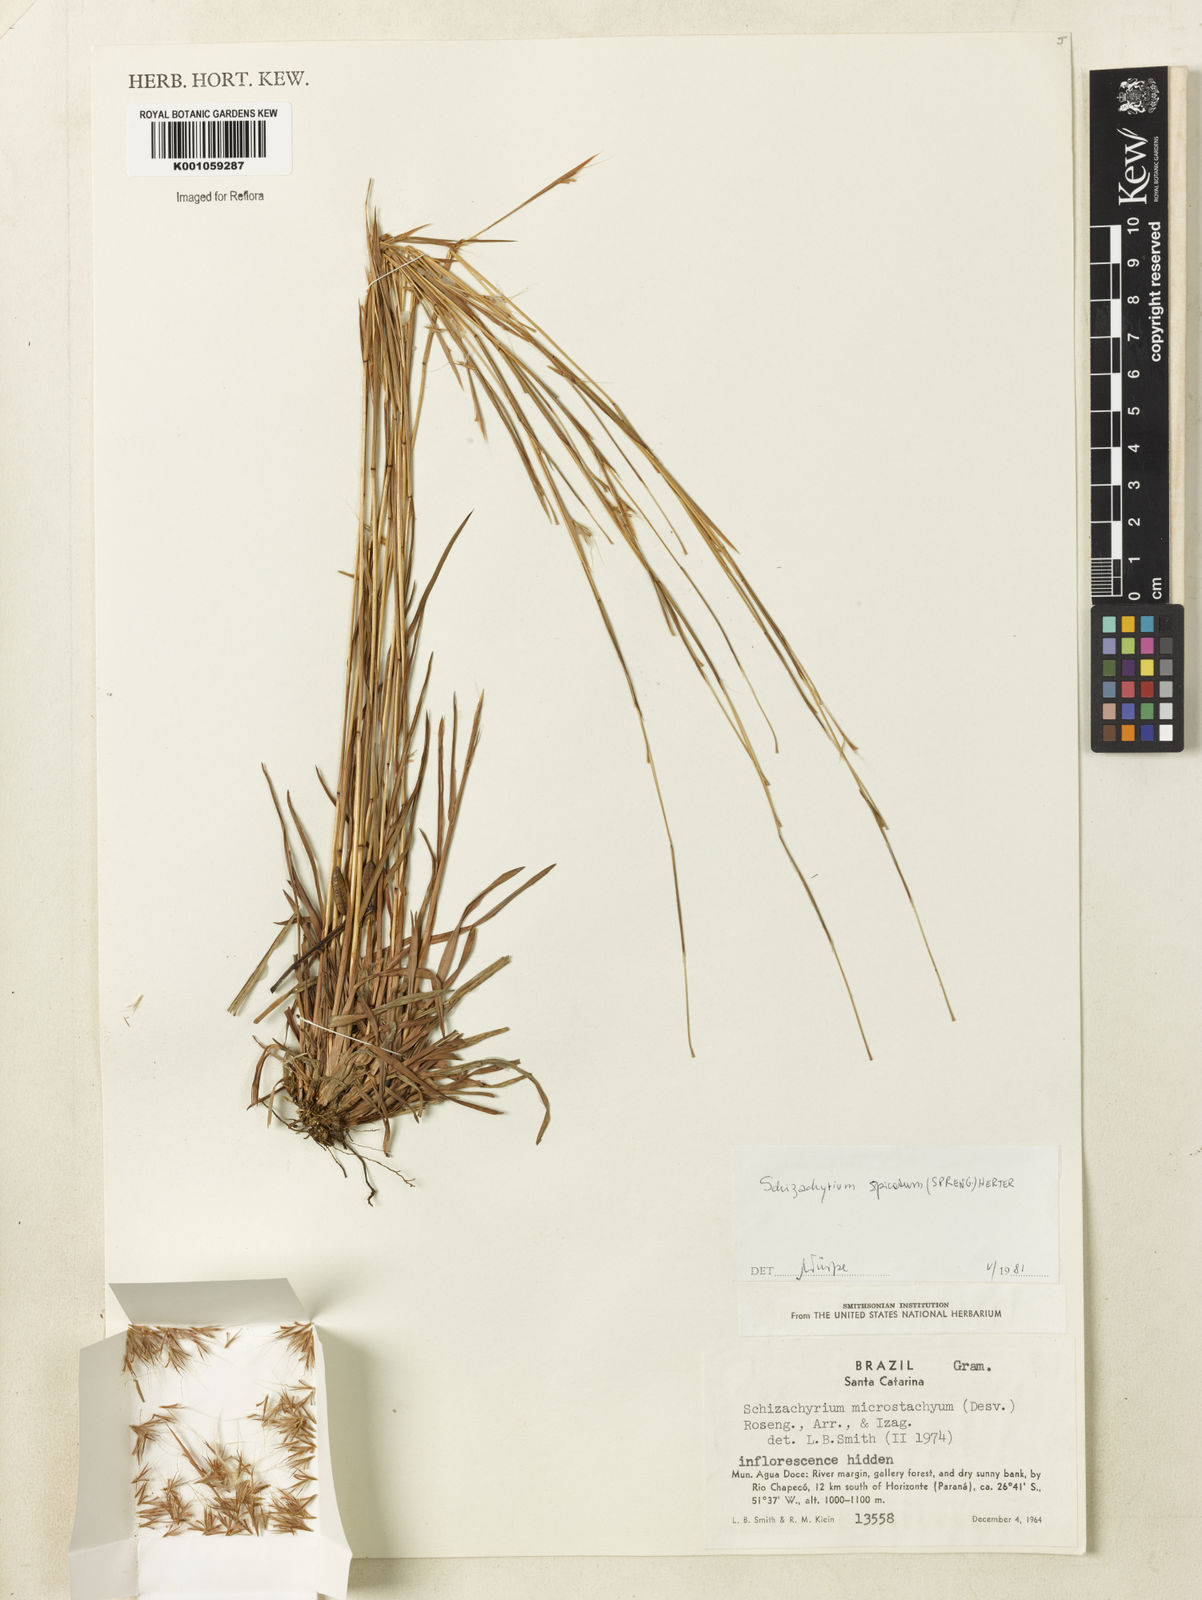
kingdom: Plantae
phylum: Tracheophyta
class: Liliopsida
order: Poales
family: Poaceae
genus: Schizachyrium
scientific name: Schizachyrium spicatum
